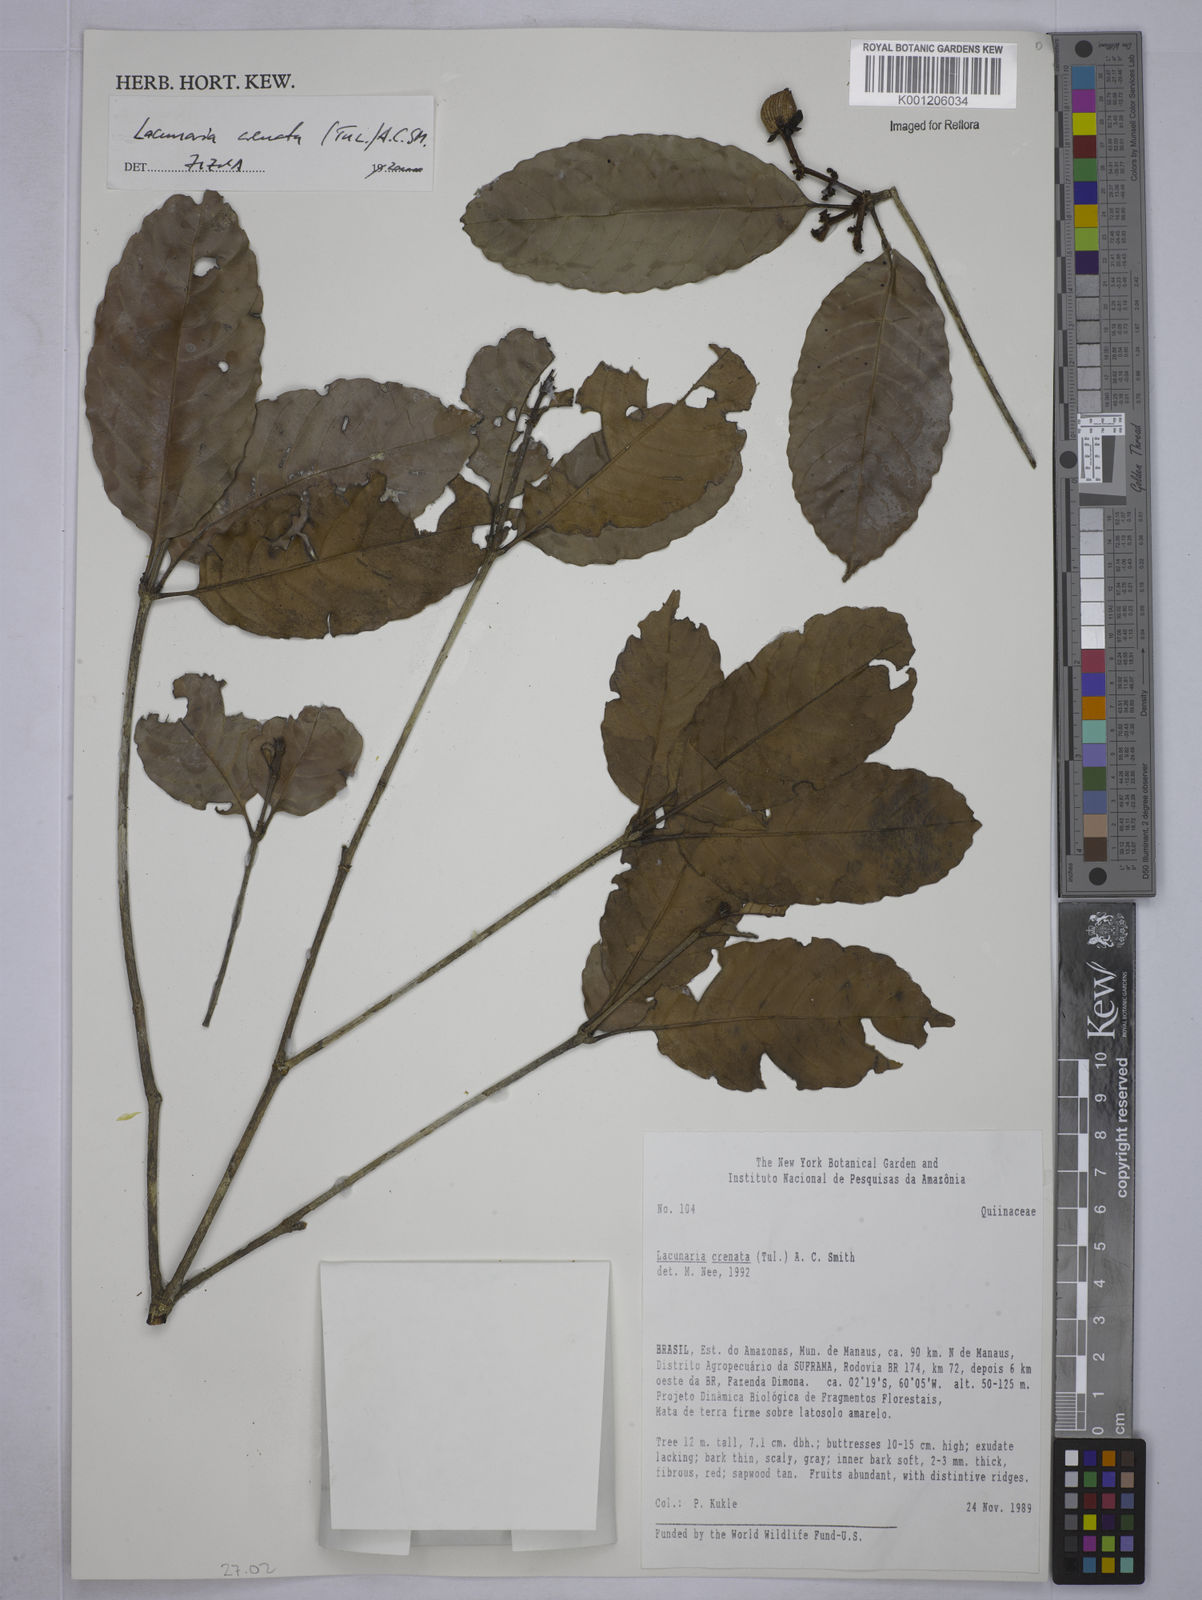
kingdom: Plantae
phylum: Tracheophyta
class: Magnoliopsida
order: Malpighiales
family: Quiinaceae
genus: Lacunaria
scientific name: Lacunaria crenata
